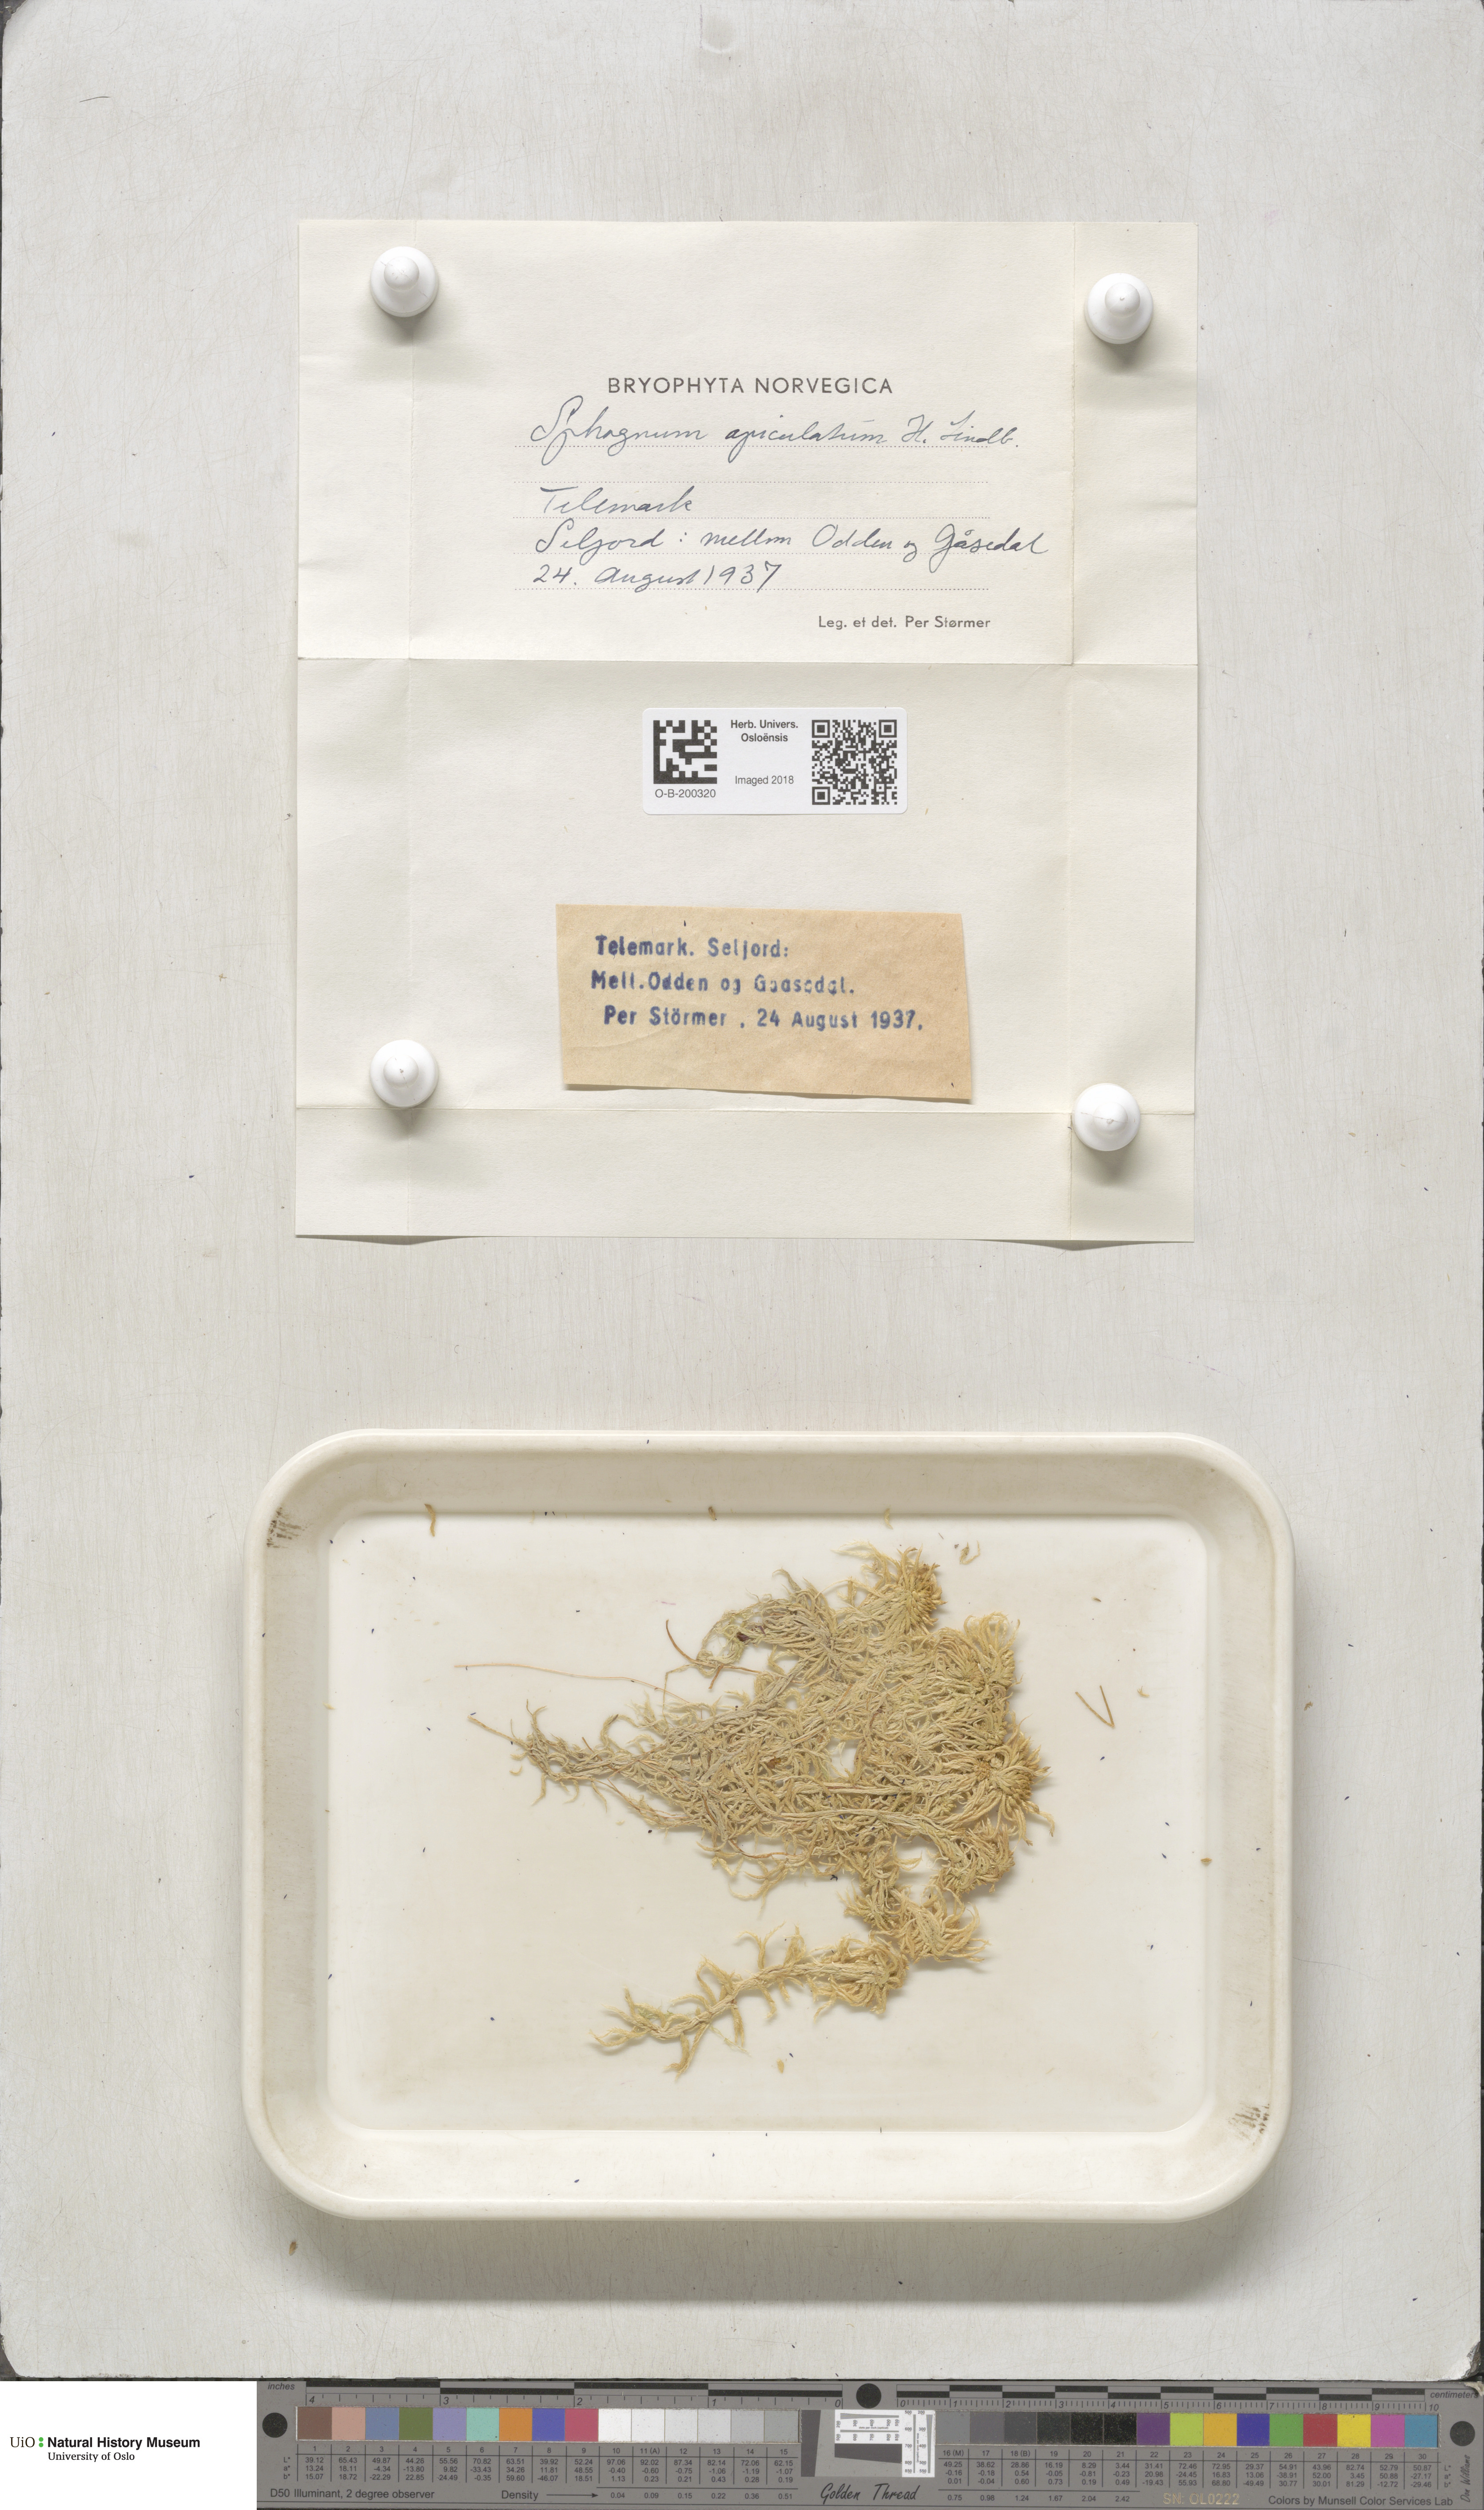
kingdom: Plantae
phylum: Bryophyta
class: Sphagnopsida
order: Sphagnales
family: Sphagnaceae
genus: Sphagnum
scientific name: Sphagnum fallax
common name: Flat-top peat moss
